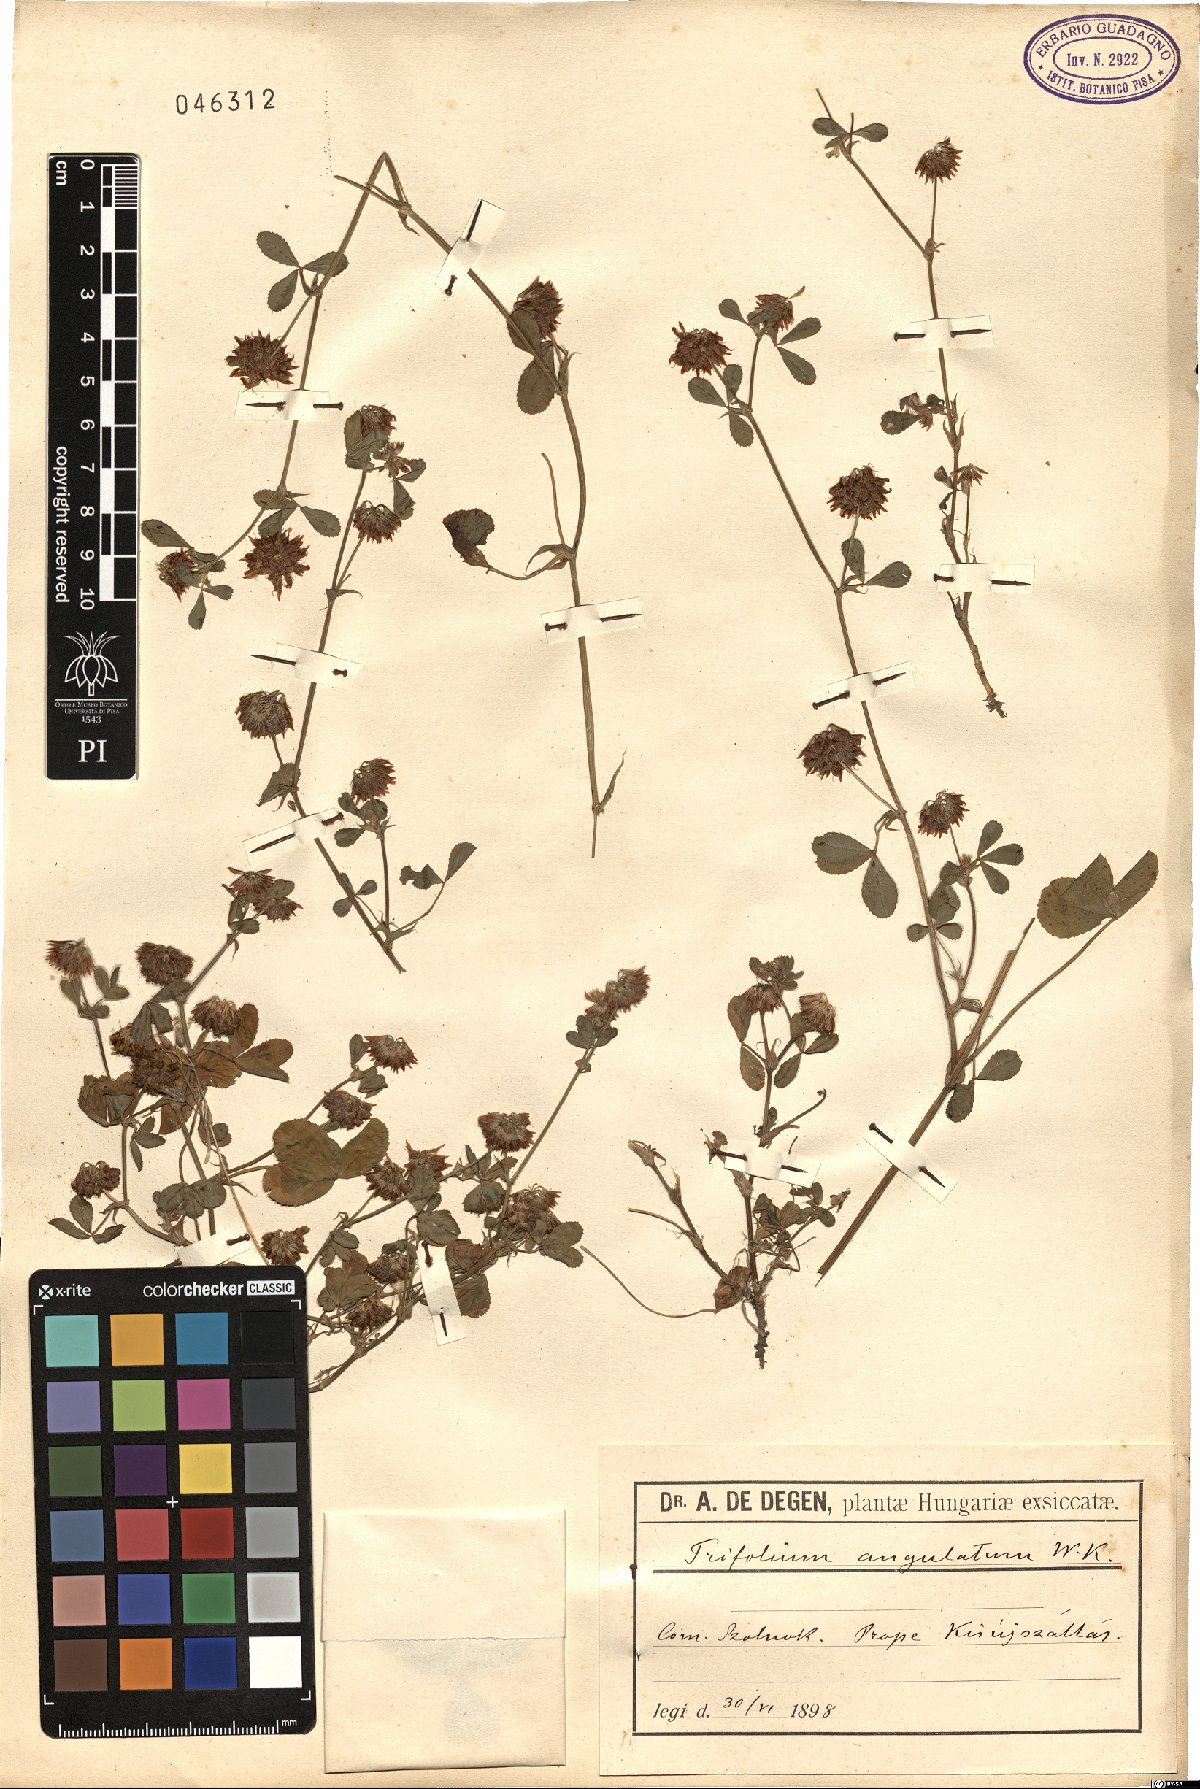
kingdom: Plantae
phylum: Tracheophyta
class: Magnoliopsida
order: Fabales
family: Fabaceae
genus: Trifolium
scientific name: Trifolium angulatum
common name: Angled clover
